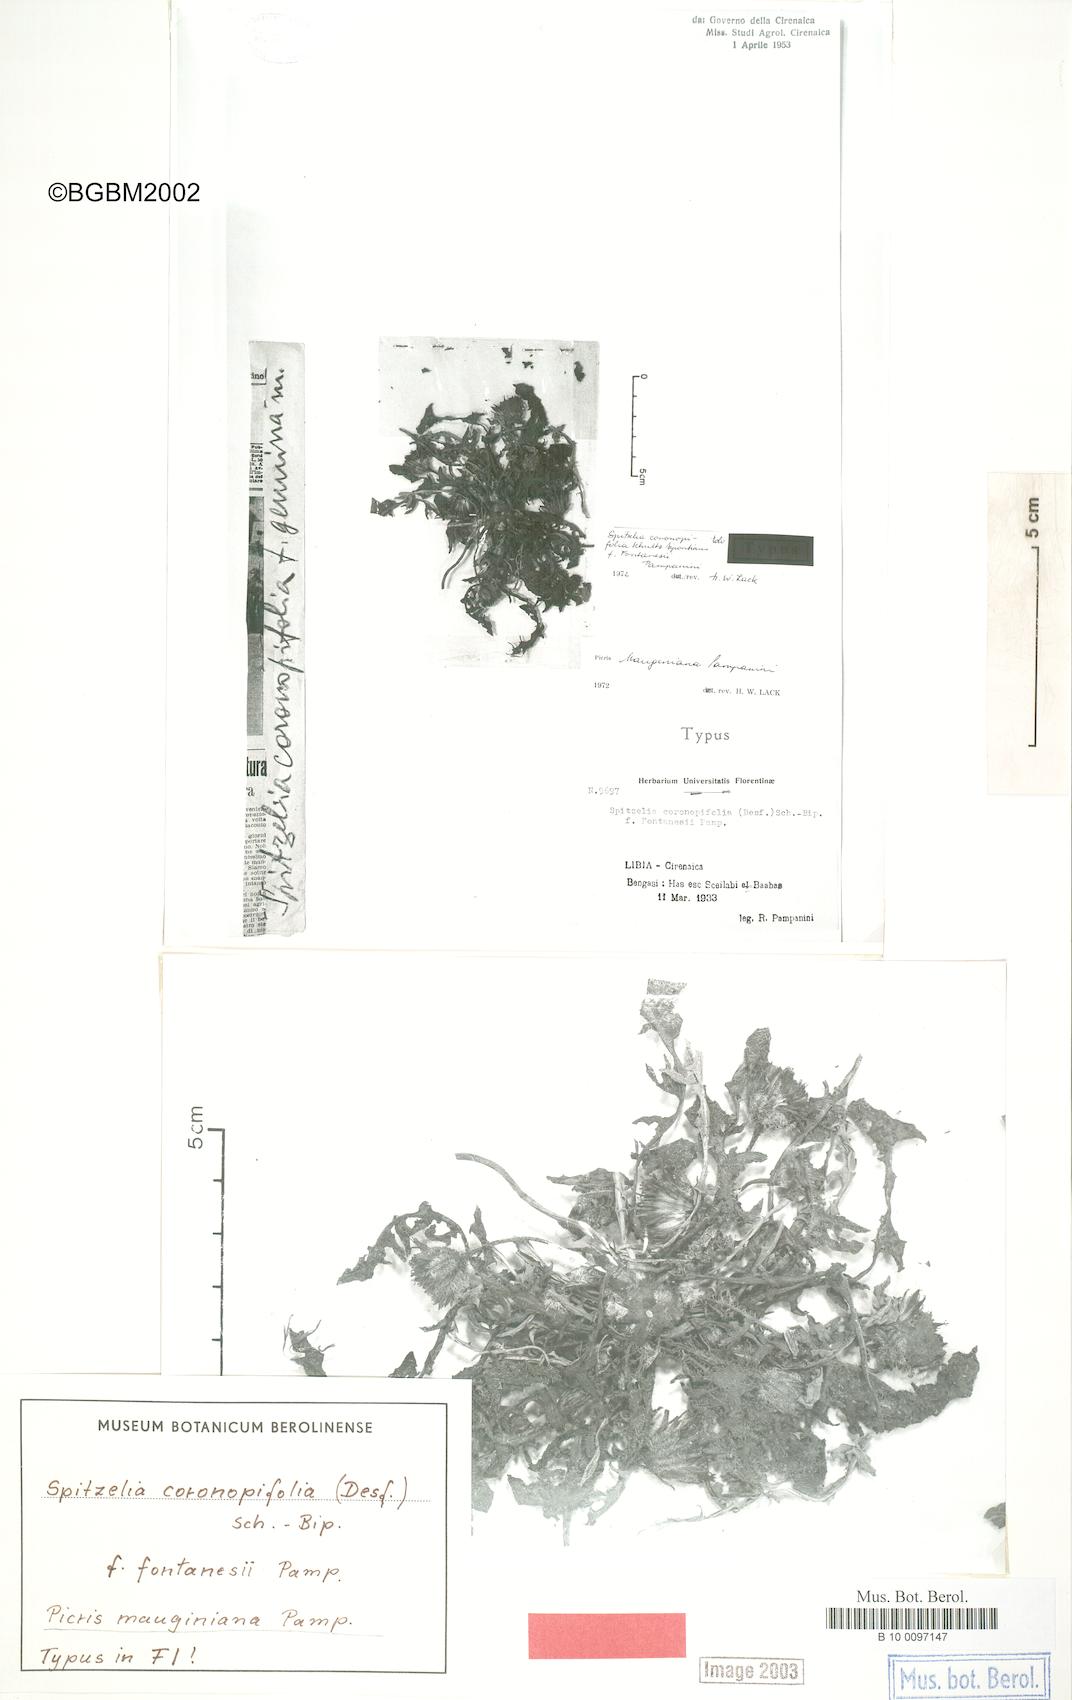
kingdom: Plantae
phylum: Tracheophyta
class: Magnoliopsida
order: Asterales
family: Asteraceae
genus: Picris
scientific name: Picris mauginiana
